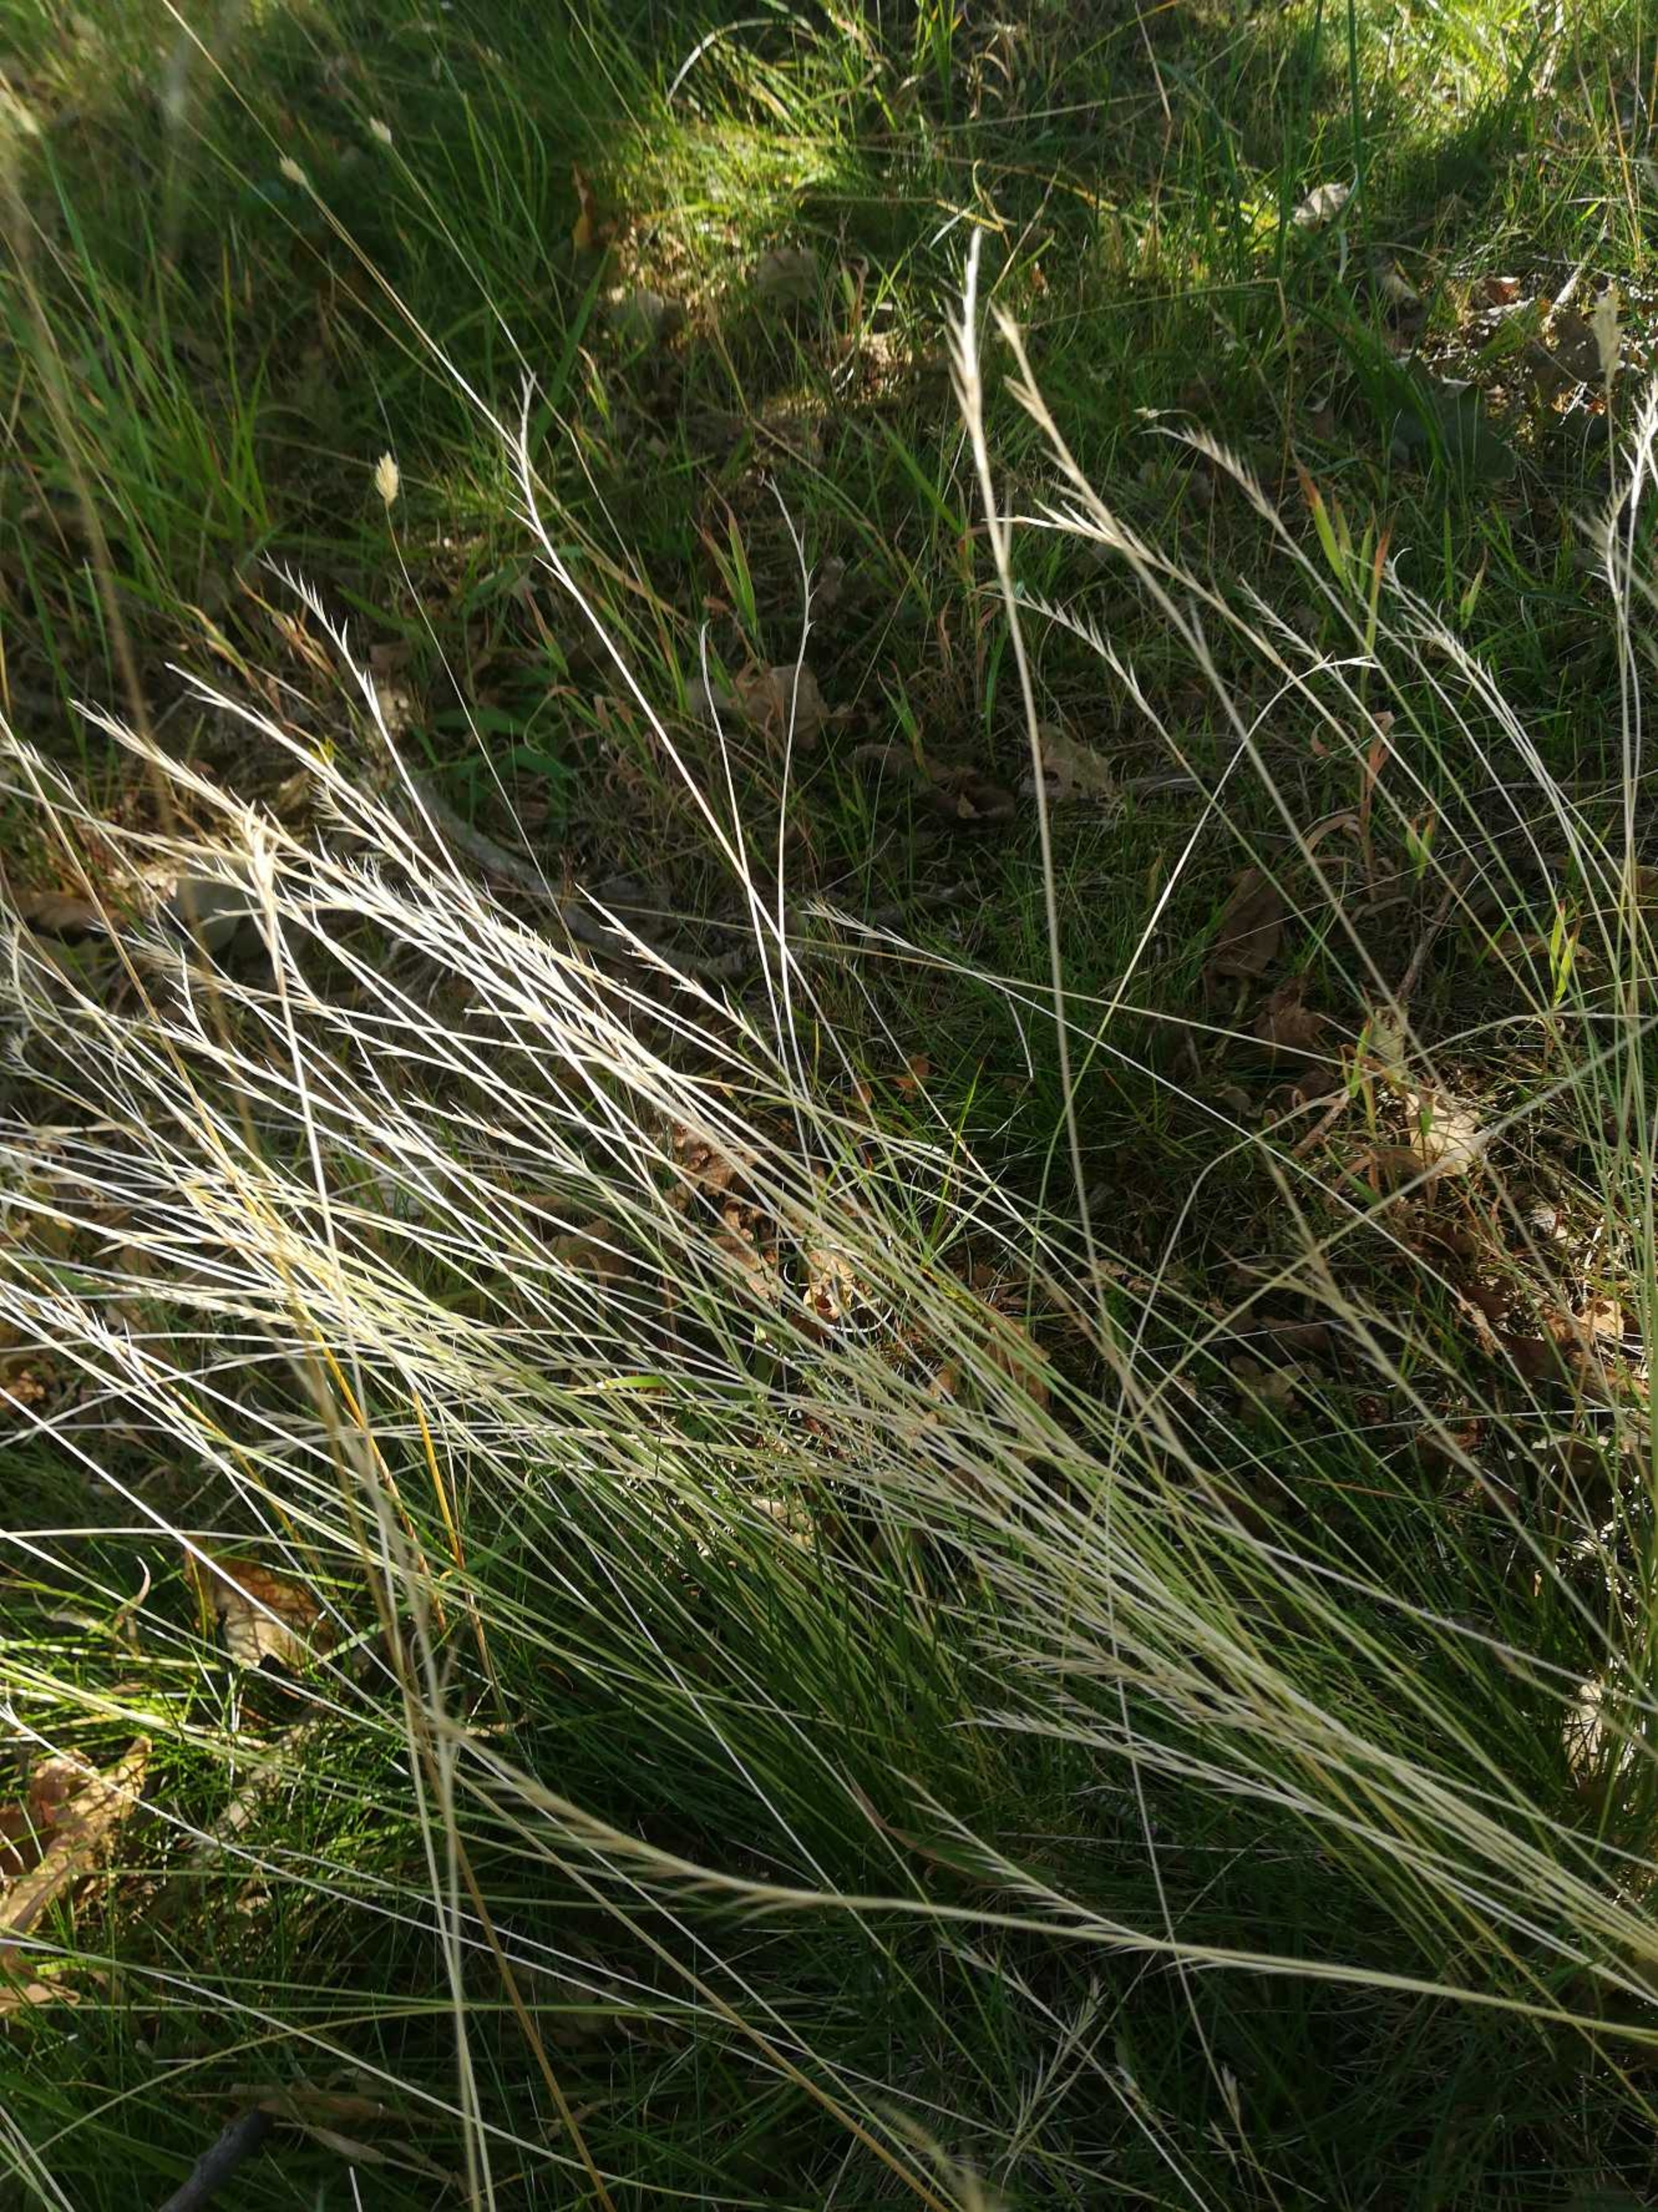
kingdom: Plantae
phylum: Tracheophyta
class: Liliopsida
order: Poales
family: Poaceae
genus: Nardus
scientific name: Nardus stricta
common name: Katteskæg
